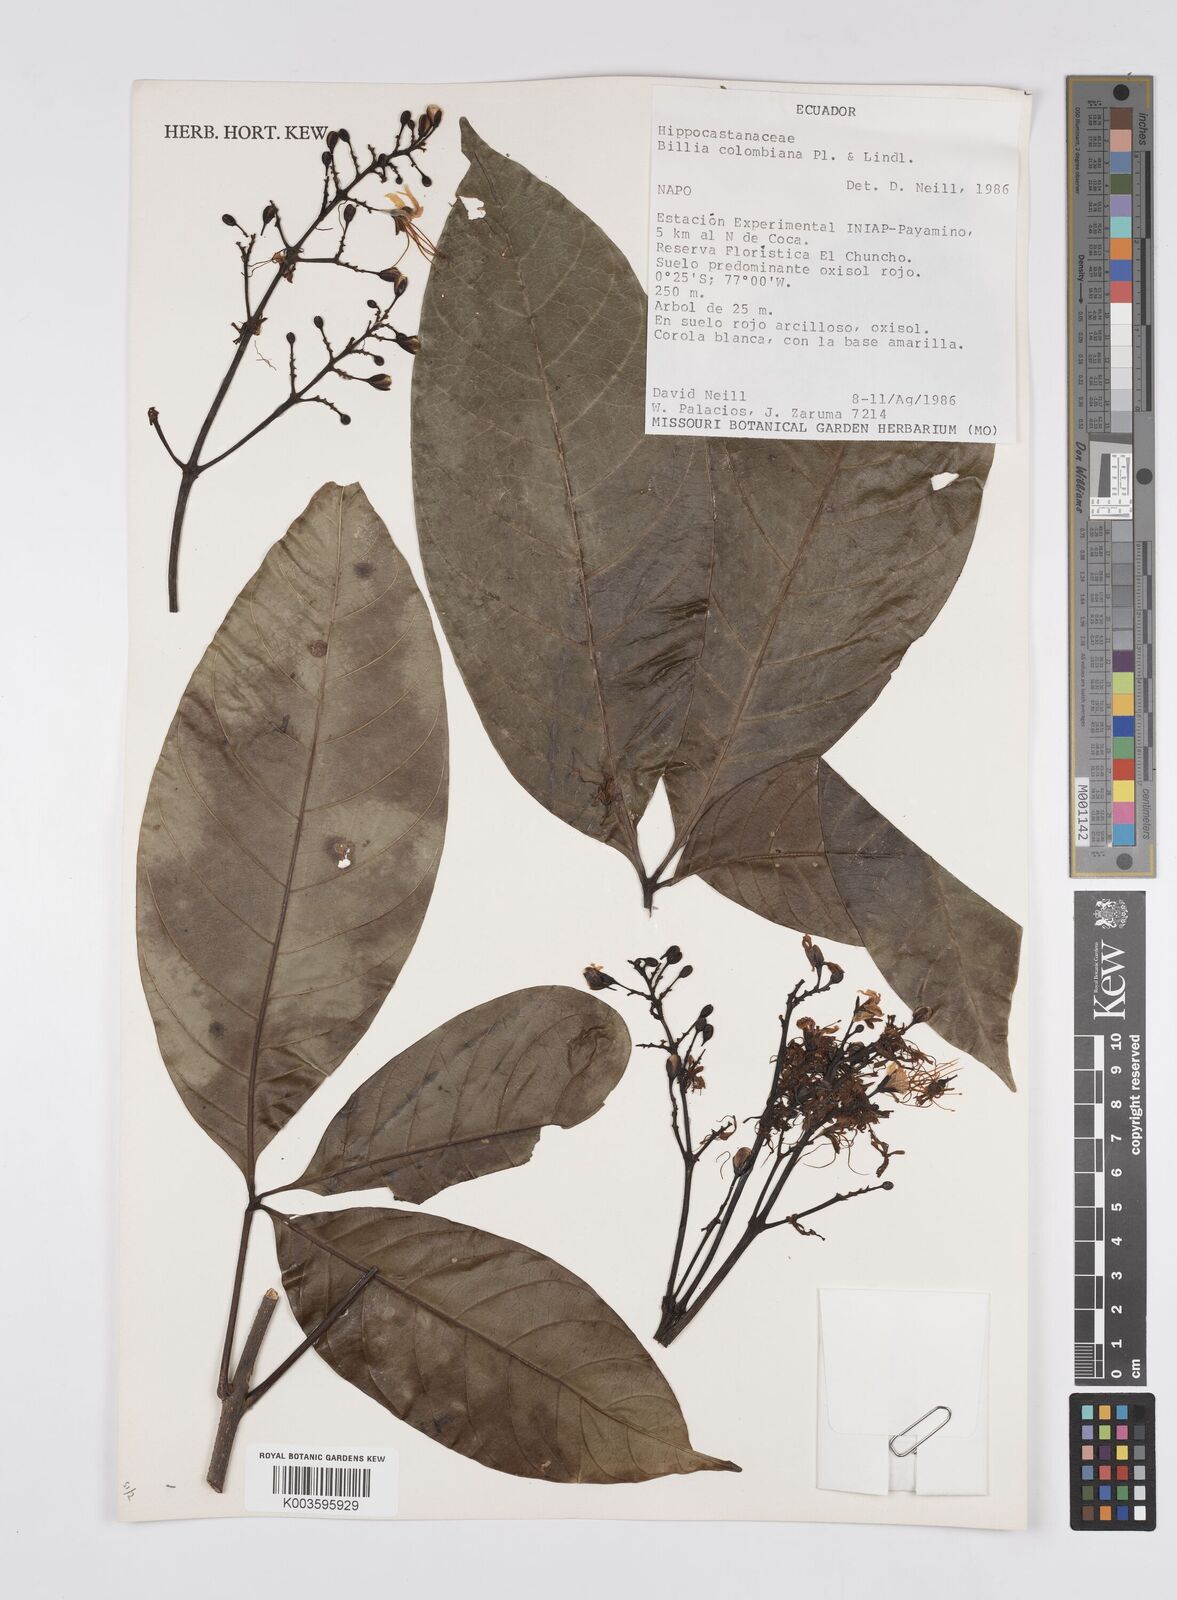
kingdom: Plantae
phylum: Tracheophyta
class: Magnoliopsida
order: Sapindales
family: Sapindaceae
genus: Billia
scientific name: Billia
